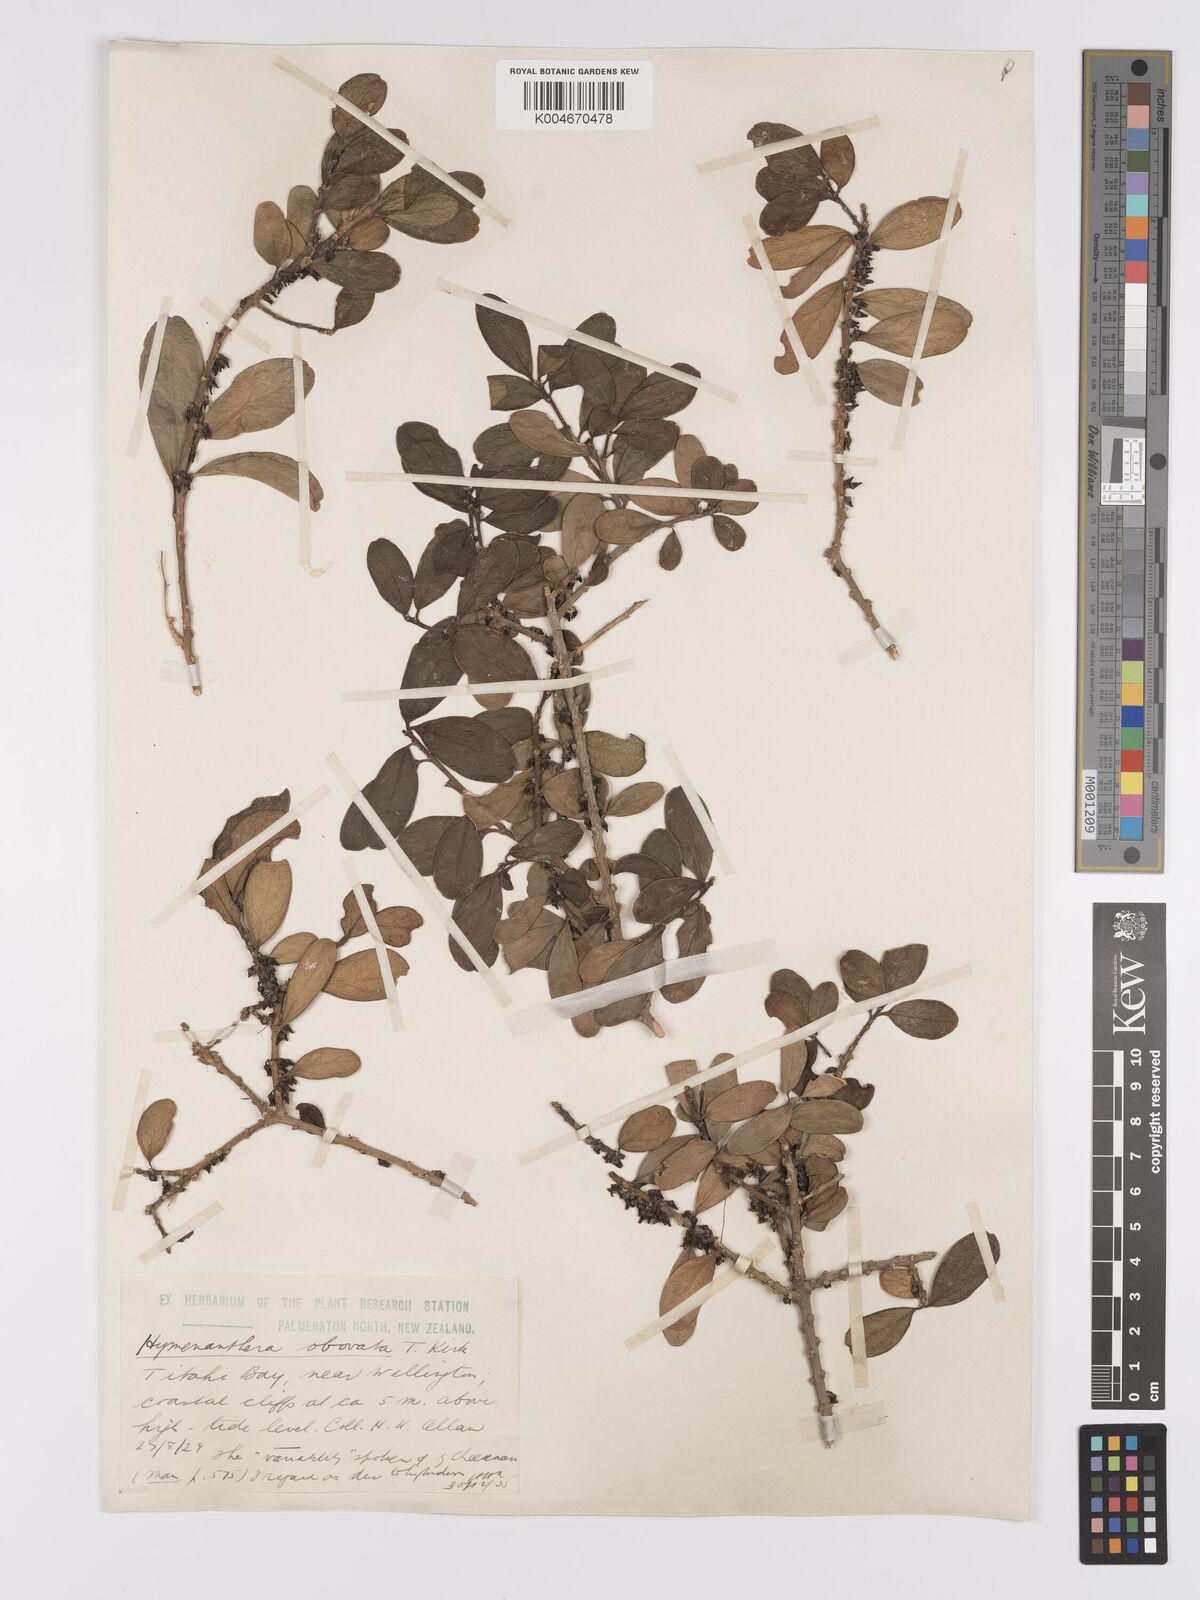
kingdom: Plantae
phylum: Tracheophyta
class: Magnoliopsida
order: Malpighiales
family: Violaceae
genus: Melicytus
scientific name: Melicytus obovatus
